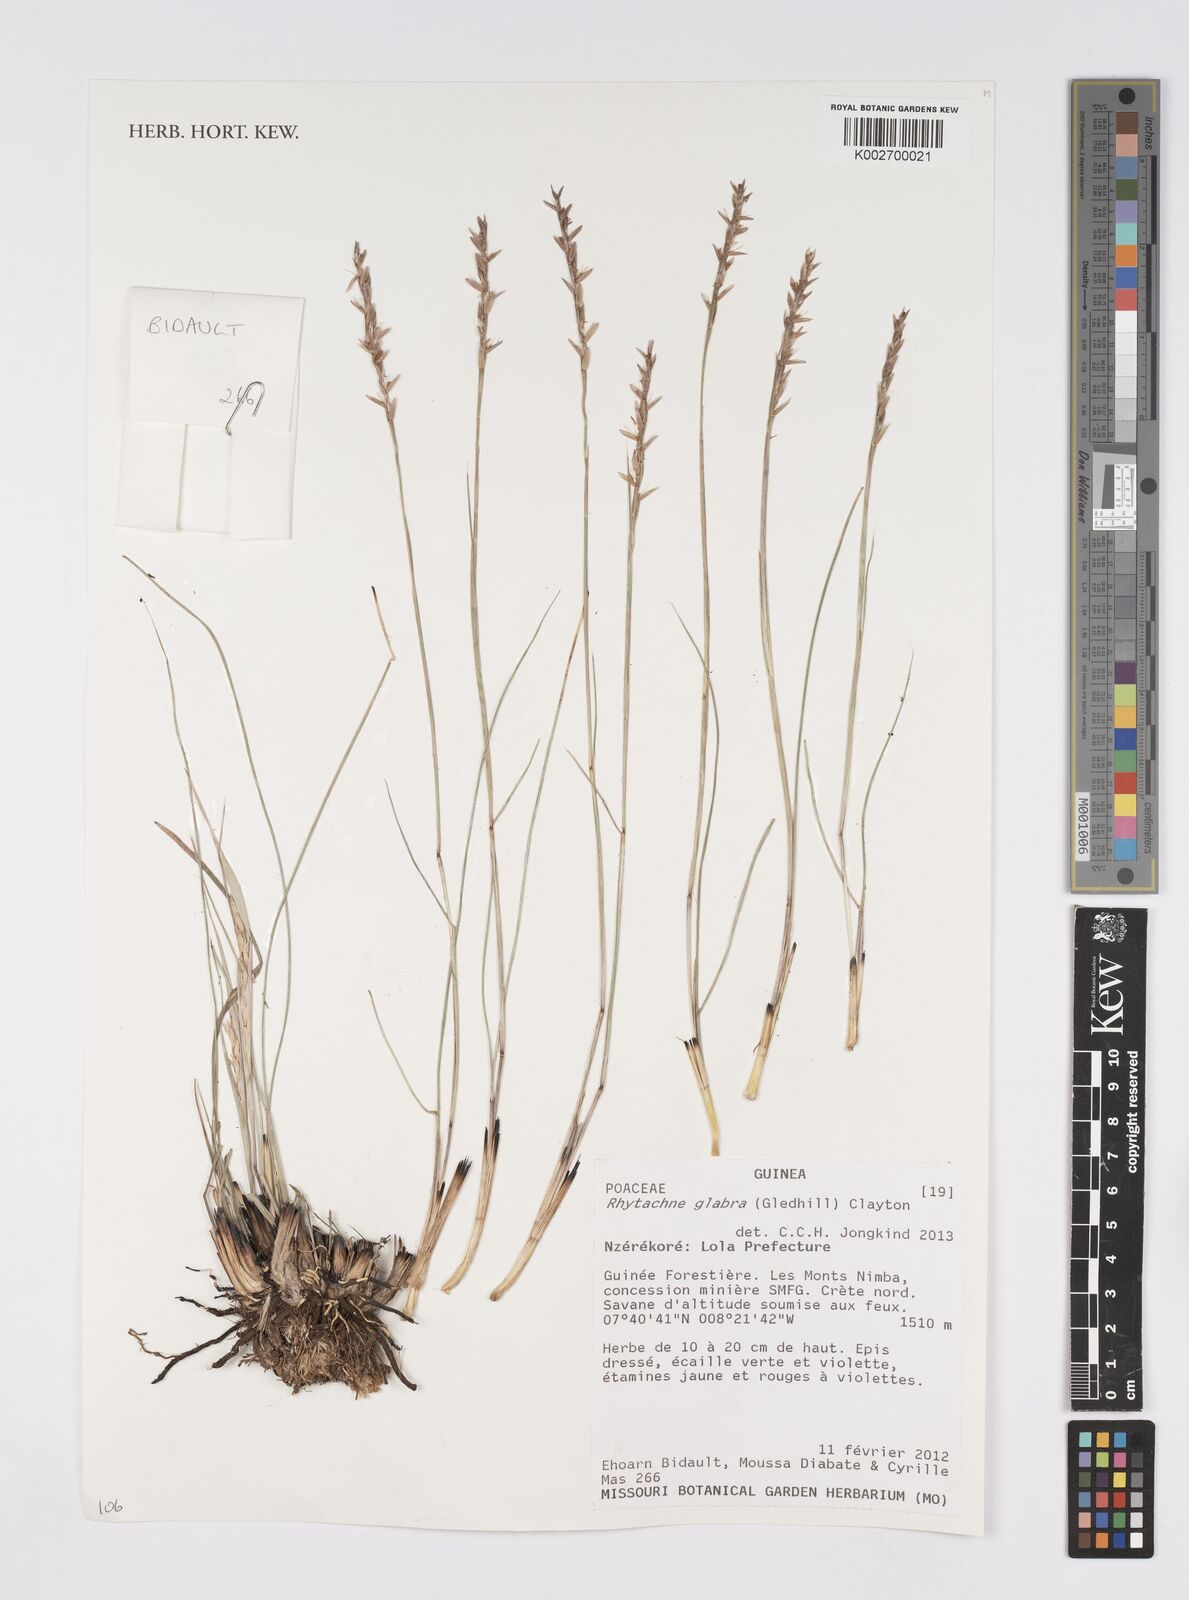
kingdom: Plantae
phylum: Tracheophyta
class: Liliopsida
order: Poales
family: Poaceae
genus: Rhytachne
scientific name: Rhytachne glabra
